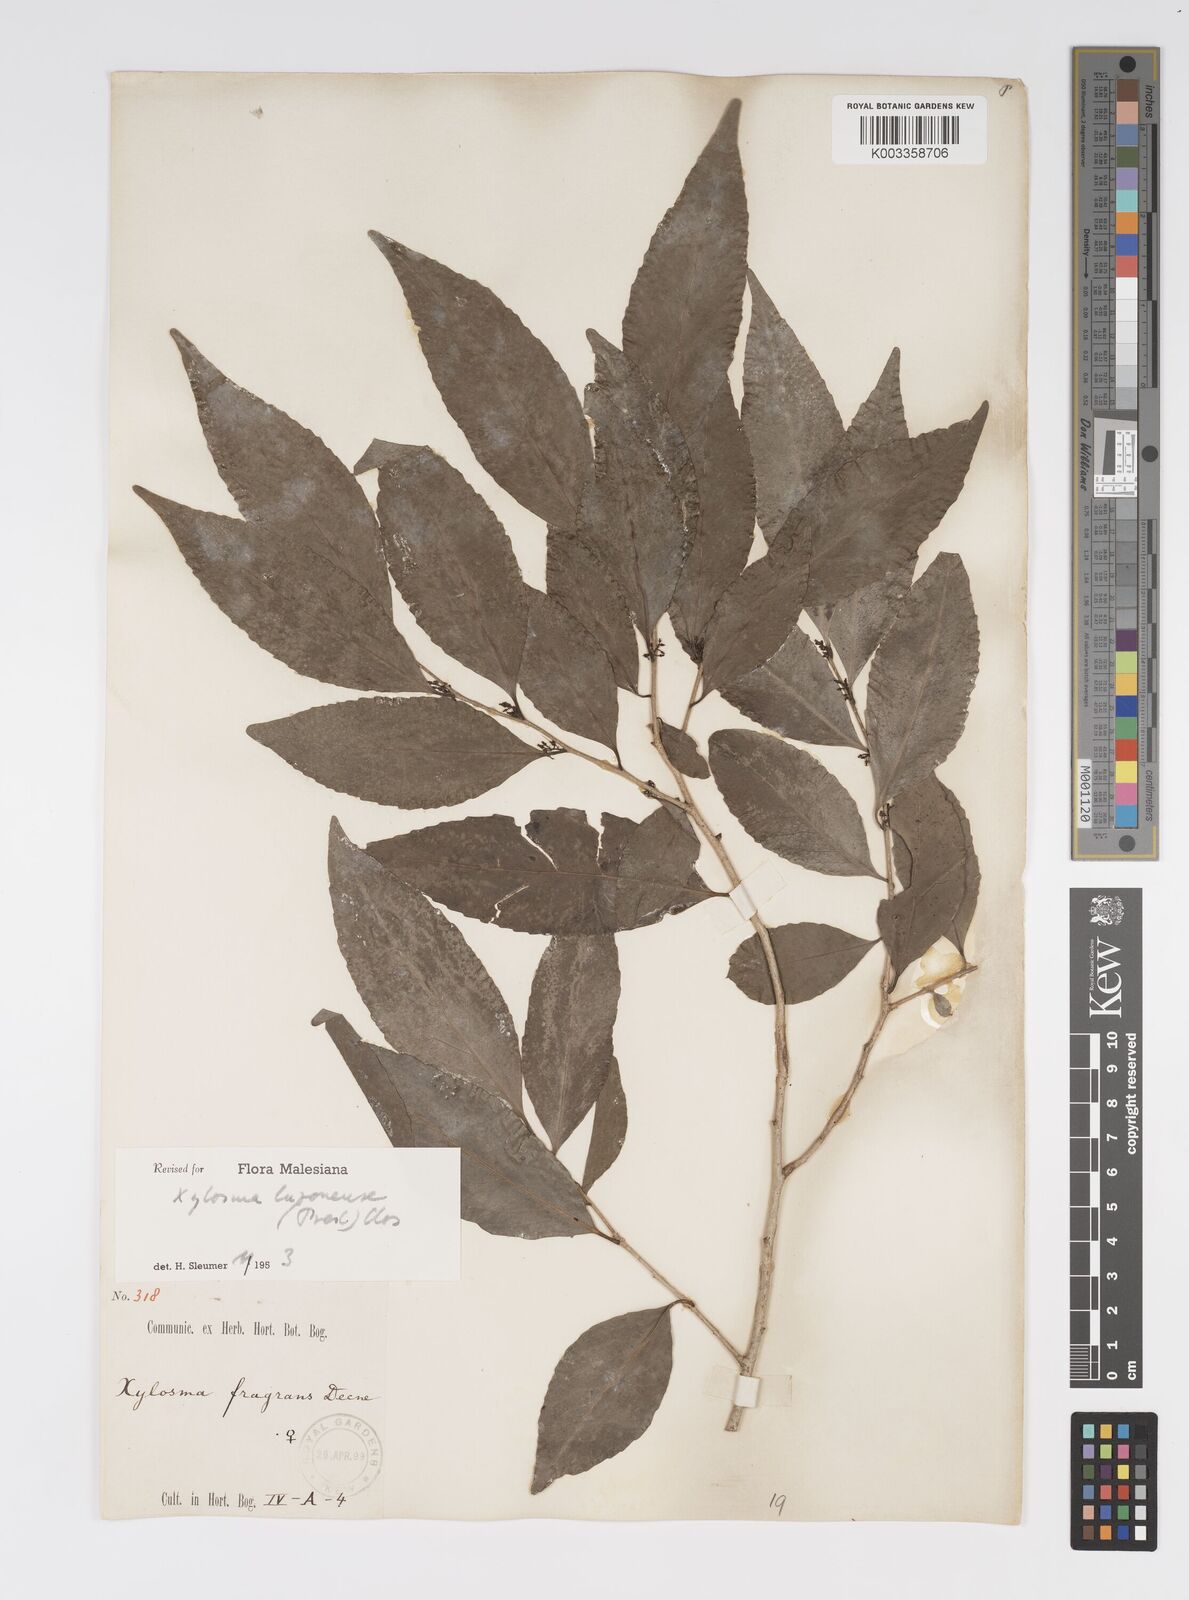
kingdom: Plantae
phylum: Tracheophyta
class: Magnoliopsida
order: Malpighiales
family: Salicaceae
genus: Xylosma
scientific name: Xylosma luzonensis
